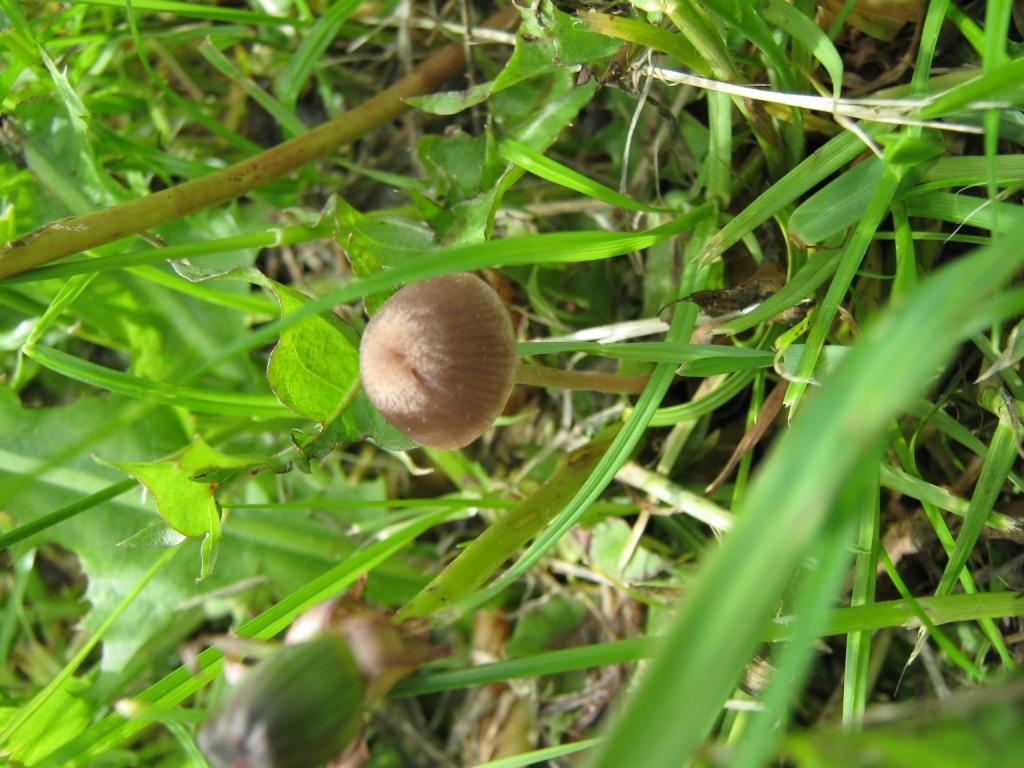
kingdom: Fungi
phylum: Basidiomycota
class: Agaricomycetes
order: Agaricales
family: Bolbitiaceae
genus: Panaeolina
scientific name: Panaeolina foenisecii
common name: høslætsvamp
